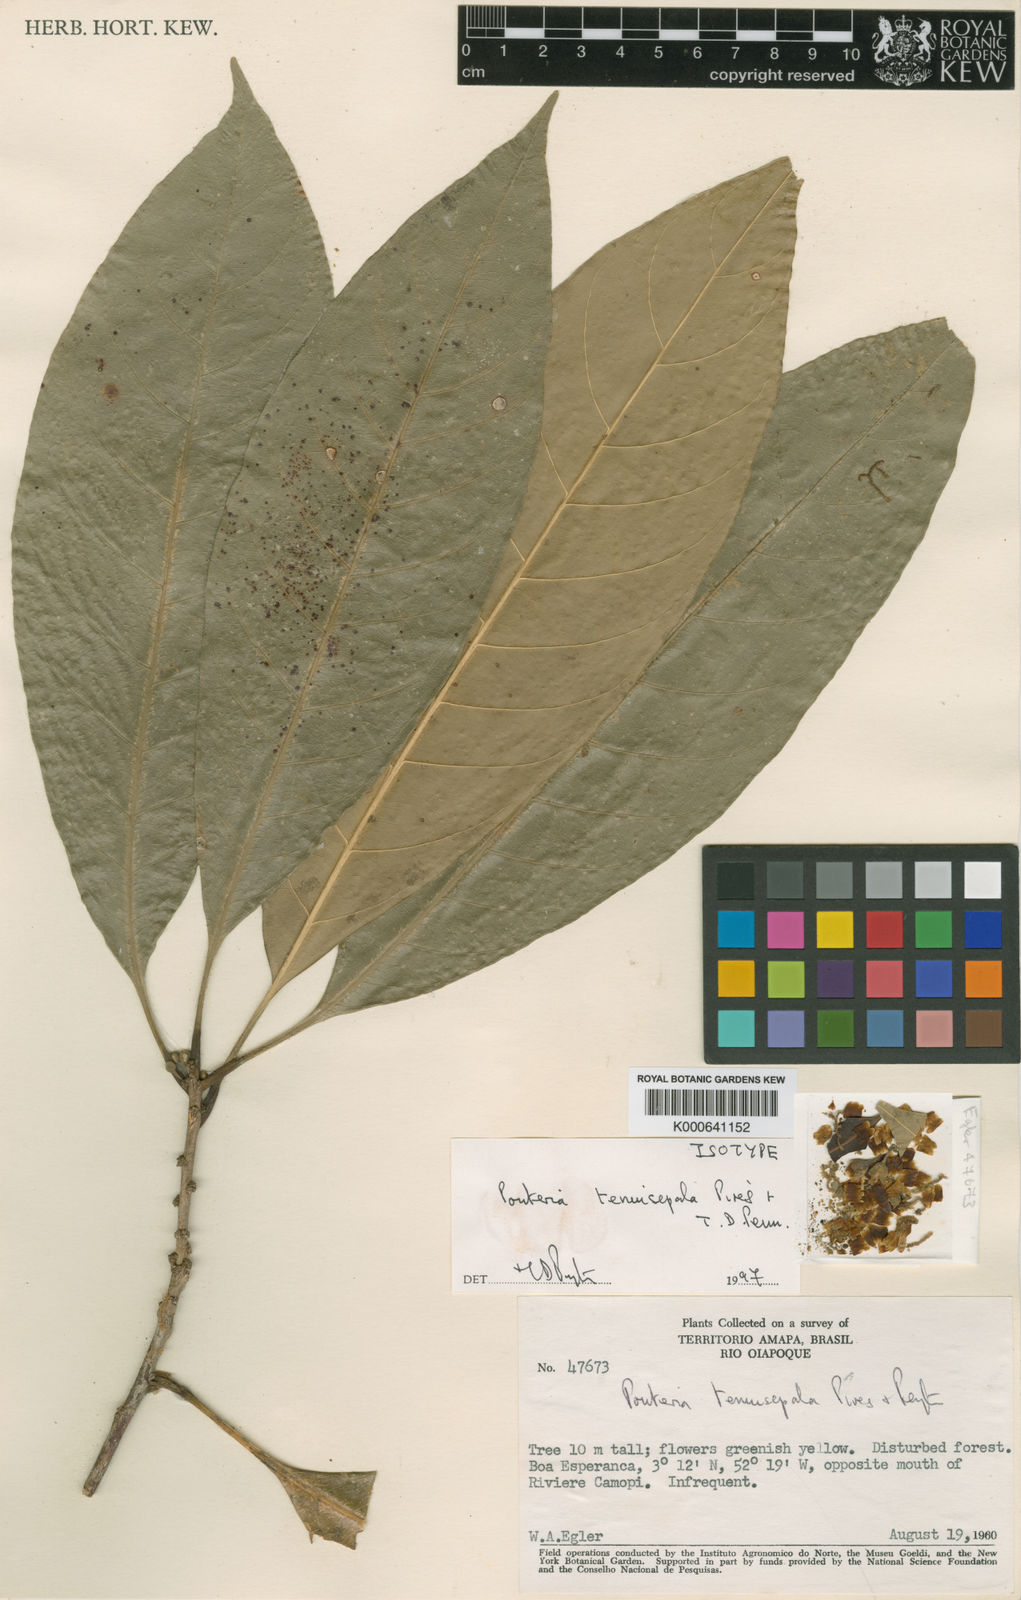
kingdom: Plantae
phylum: Tracheophyta
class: Magnoliopsida
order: Ericales
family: Sapotaceae
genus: Pouteria
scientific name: Pouteria tenuisepala
